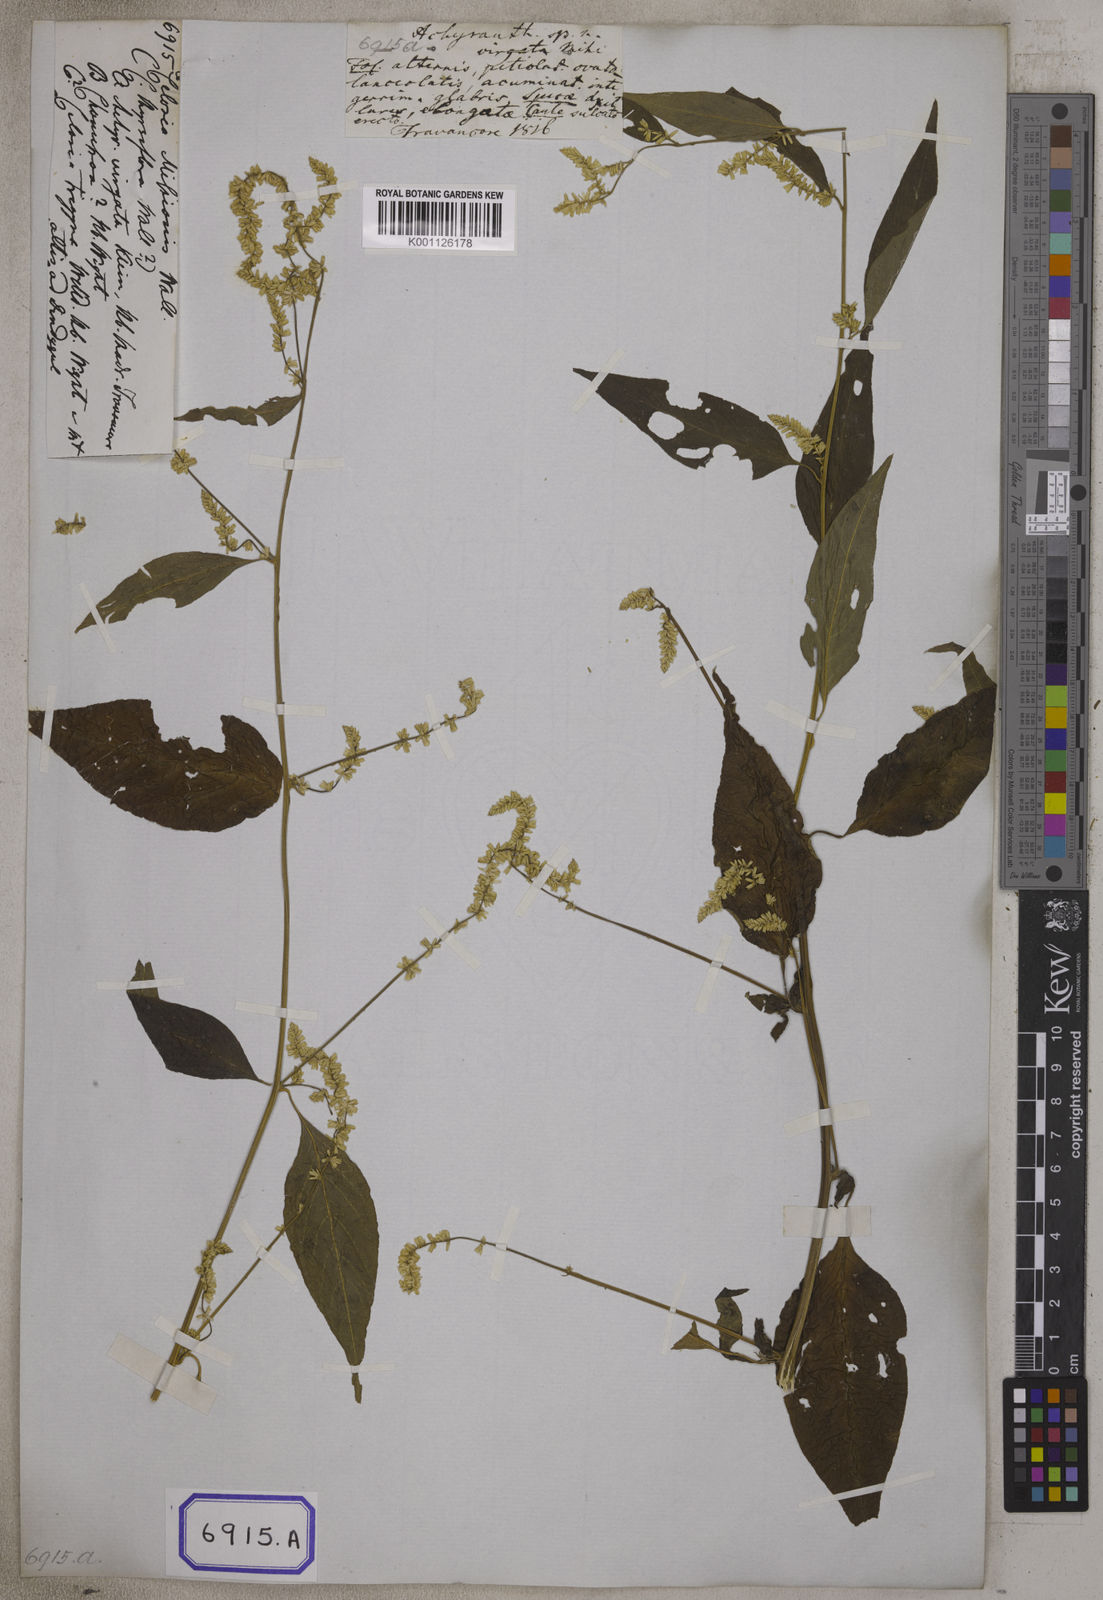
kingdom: Plantae
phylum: Tracheophyta
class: Magnoliopsida
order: Caryophyllales
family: Amaranthaceae
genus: Indobanalia
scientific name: Indobanalia thyrsiflora
